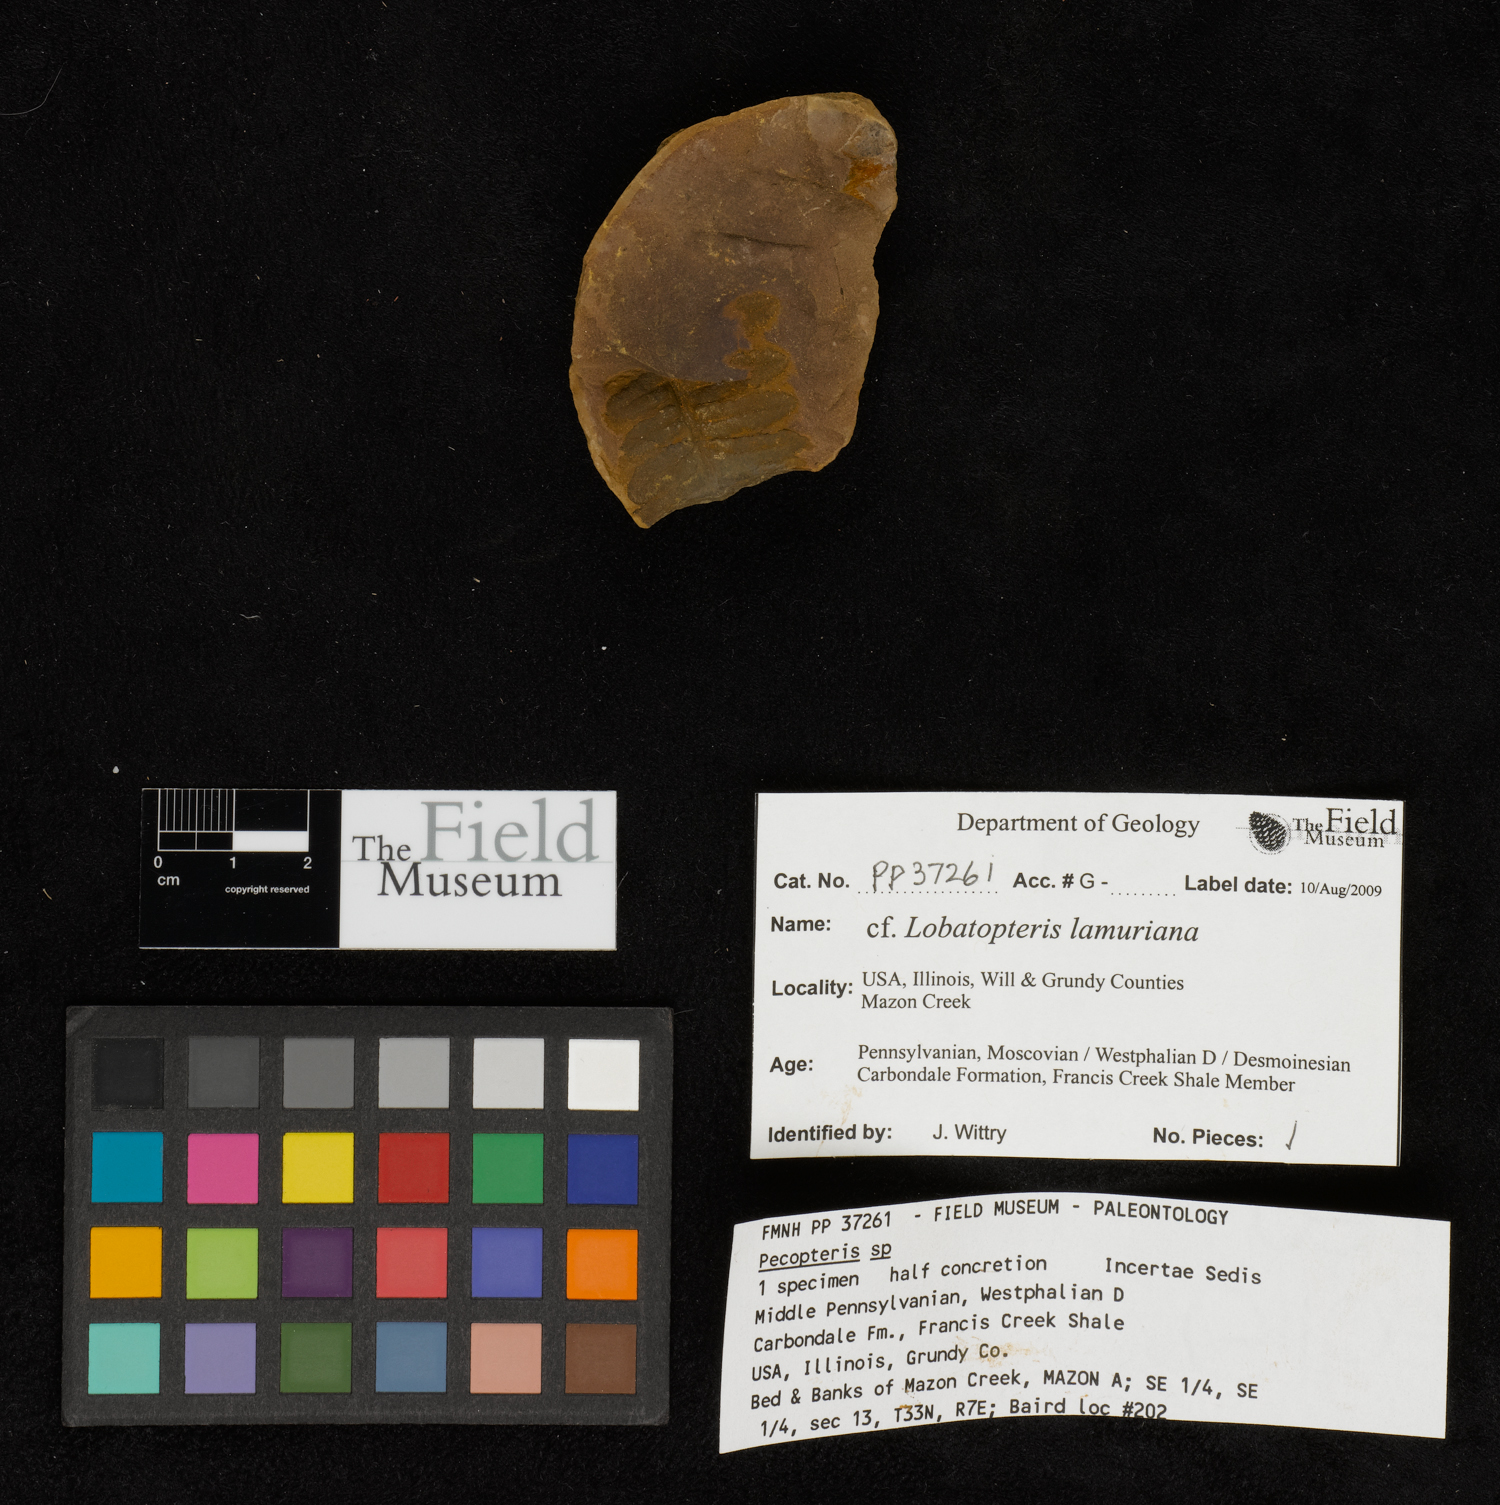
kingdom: Plantae
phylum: Tracheophyta
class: Polypodiopsida
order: Marattiales
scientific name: Marattiales
